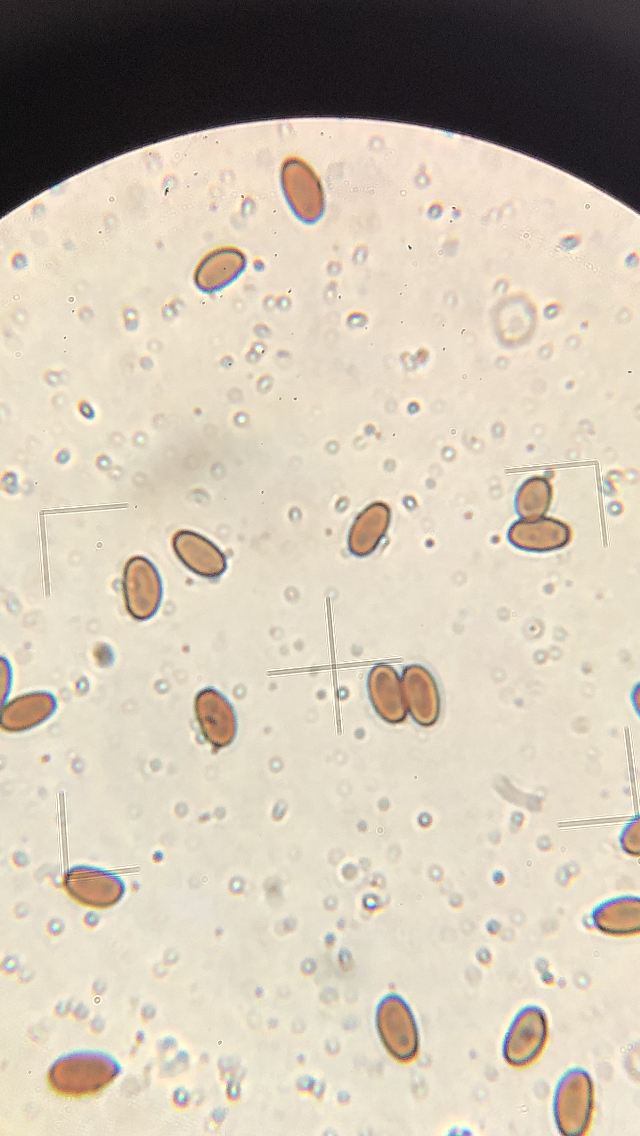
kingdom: Fungi
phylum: Basidiomycota
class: Agaricomycetes
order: Agaricales
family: Psathyrellaceae
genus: Psathyrella
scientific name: Psathyrella
